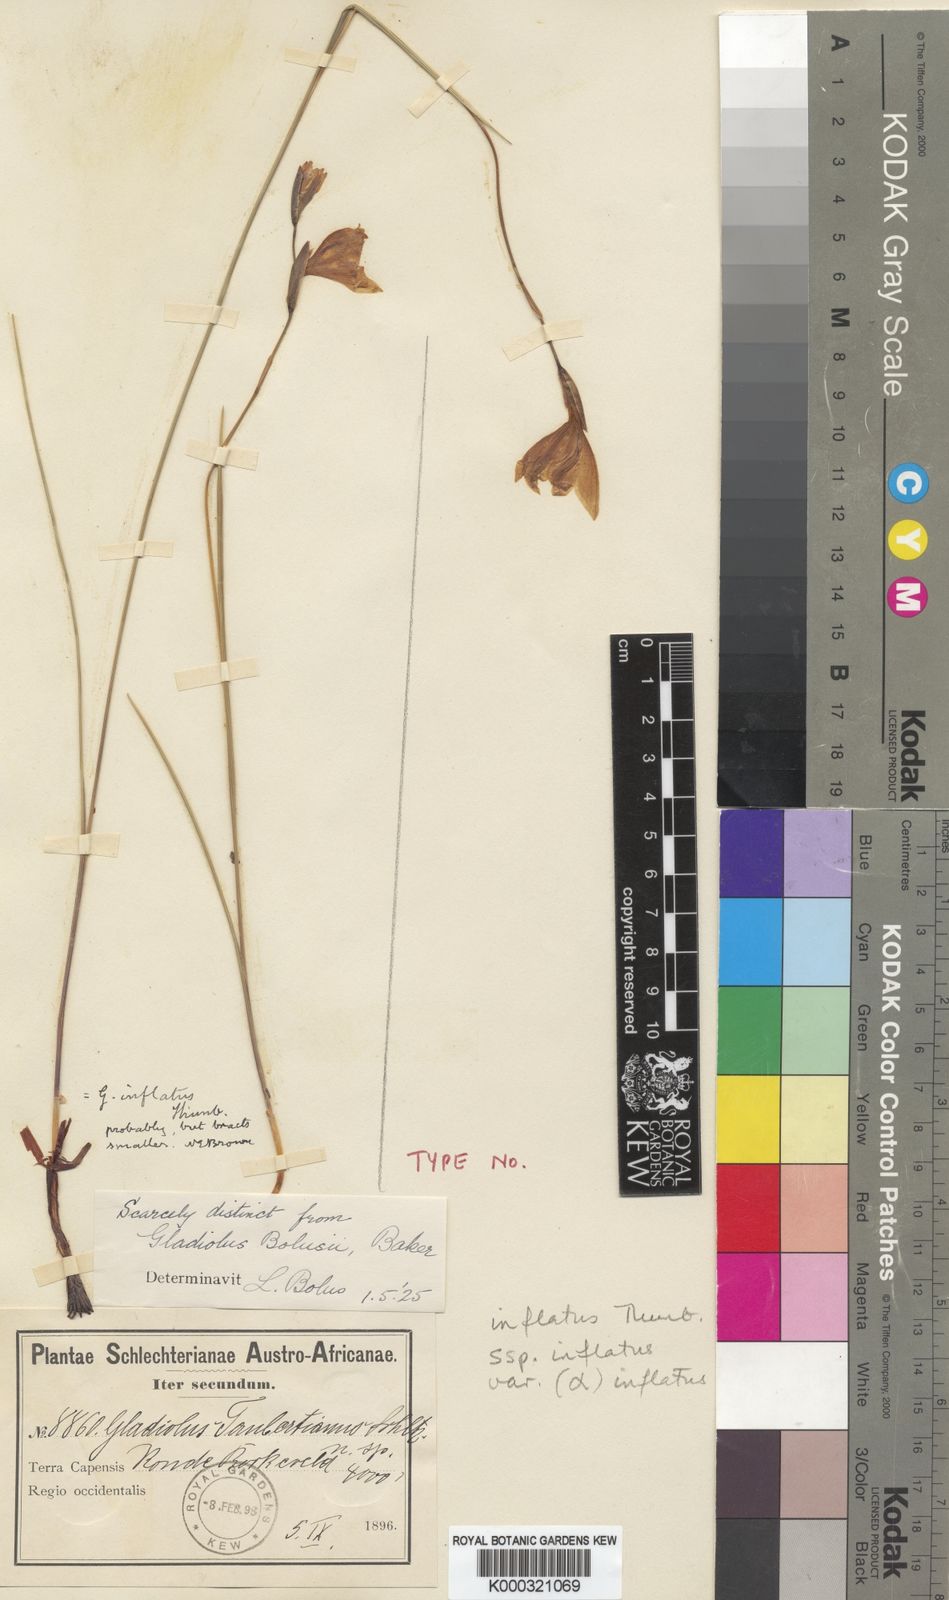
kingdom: Plantae
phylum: Tracheophyta
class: Liliopsida
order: Asparagales
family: Iridaceae
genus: Gladiolus
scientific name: Gladiolus taubertianus
